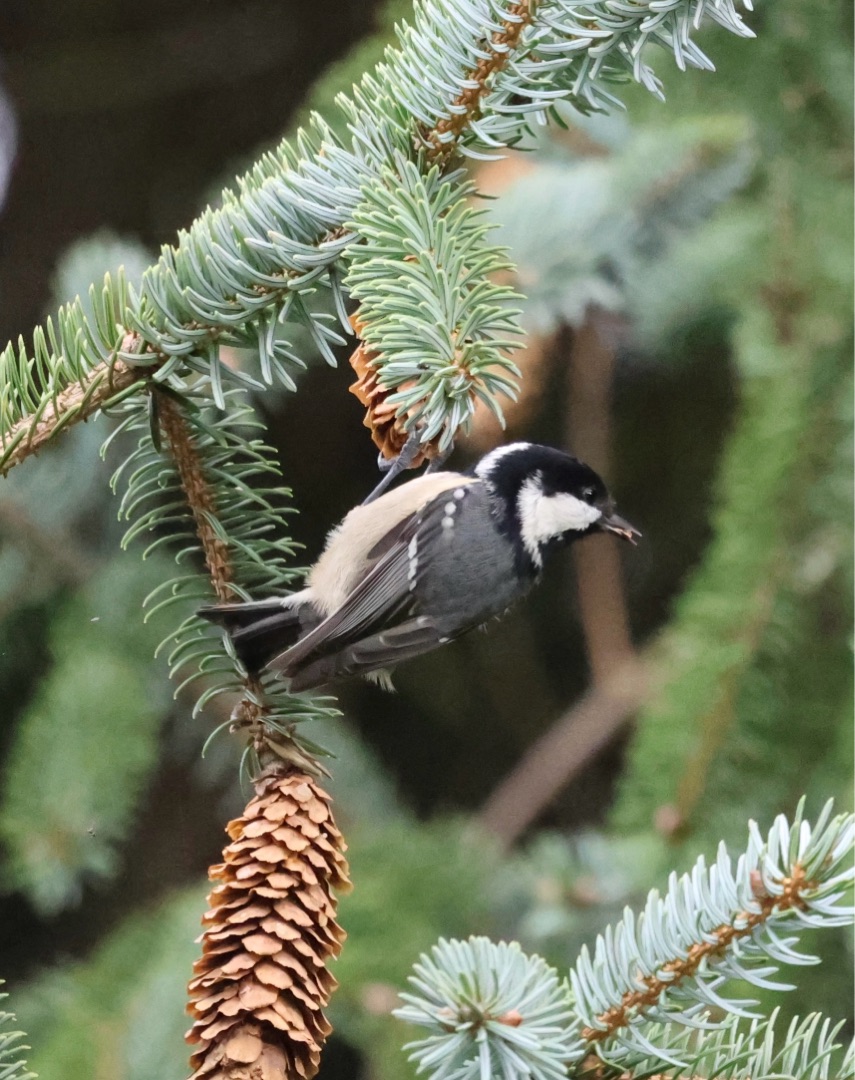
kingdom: Animalia
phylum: Chordata
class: Aves
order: Passeriformes
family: Paridae
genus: Periparus
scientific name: Periparus ater
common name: Sortmejse
